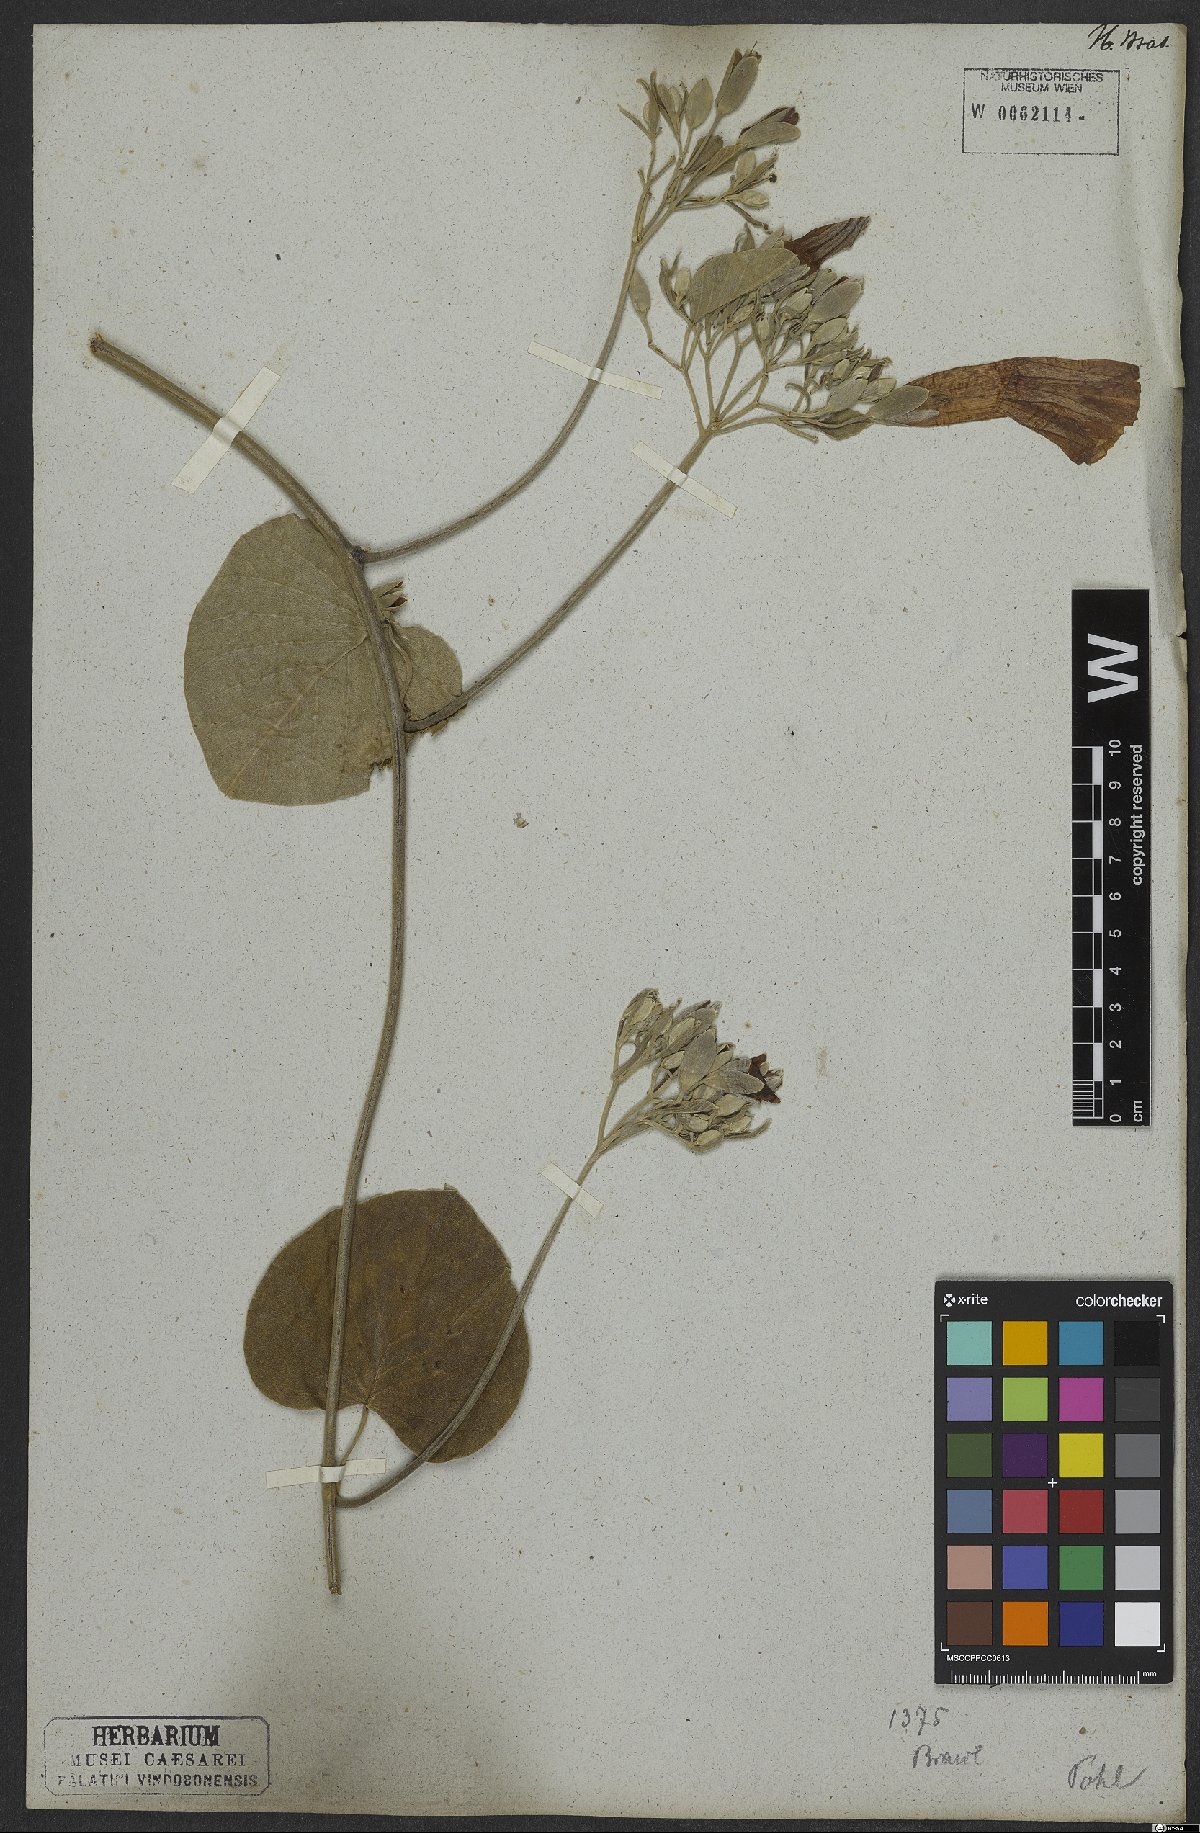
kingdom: Plantae
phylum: Tracheophyta
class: Magnoliopsida
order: Solanales
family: Convolvulaceae
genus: Ipomoea
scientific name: Ipomoea sericosepala
